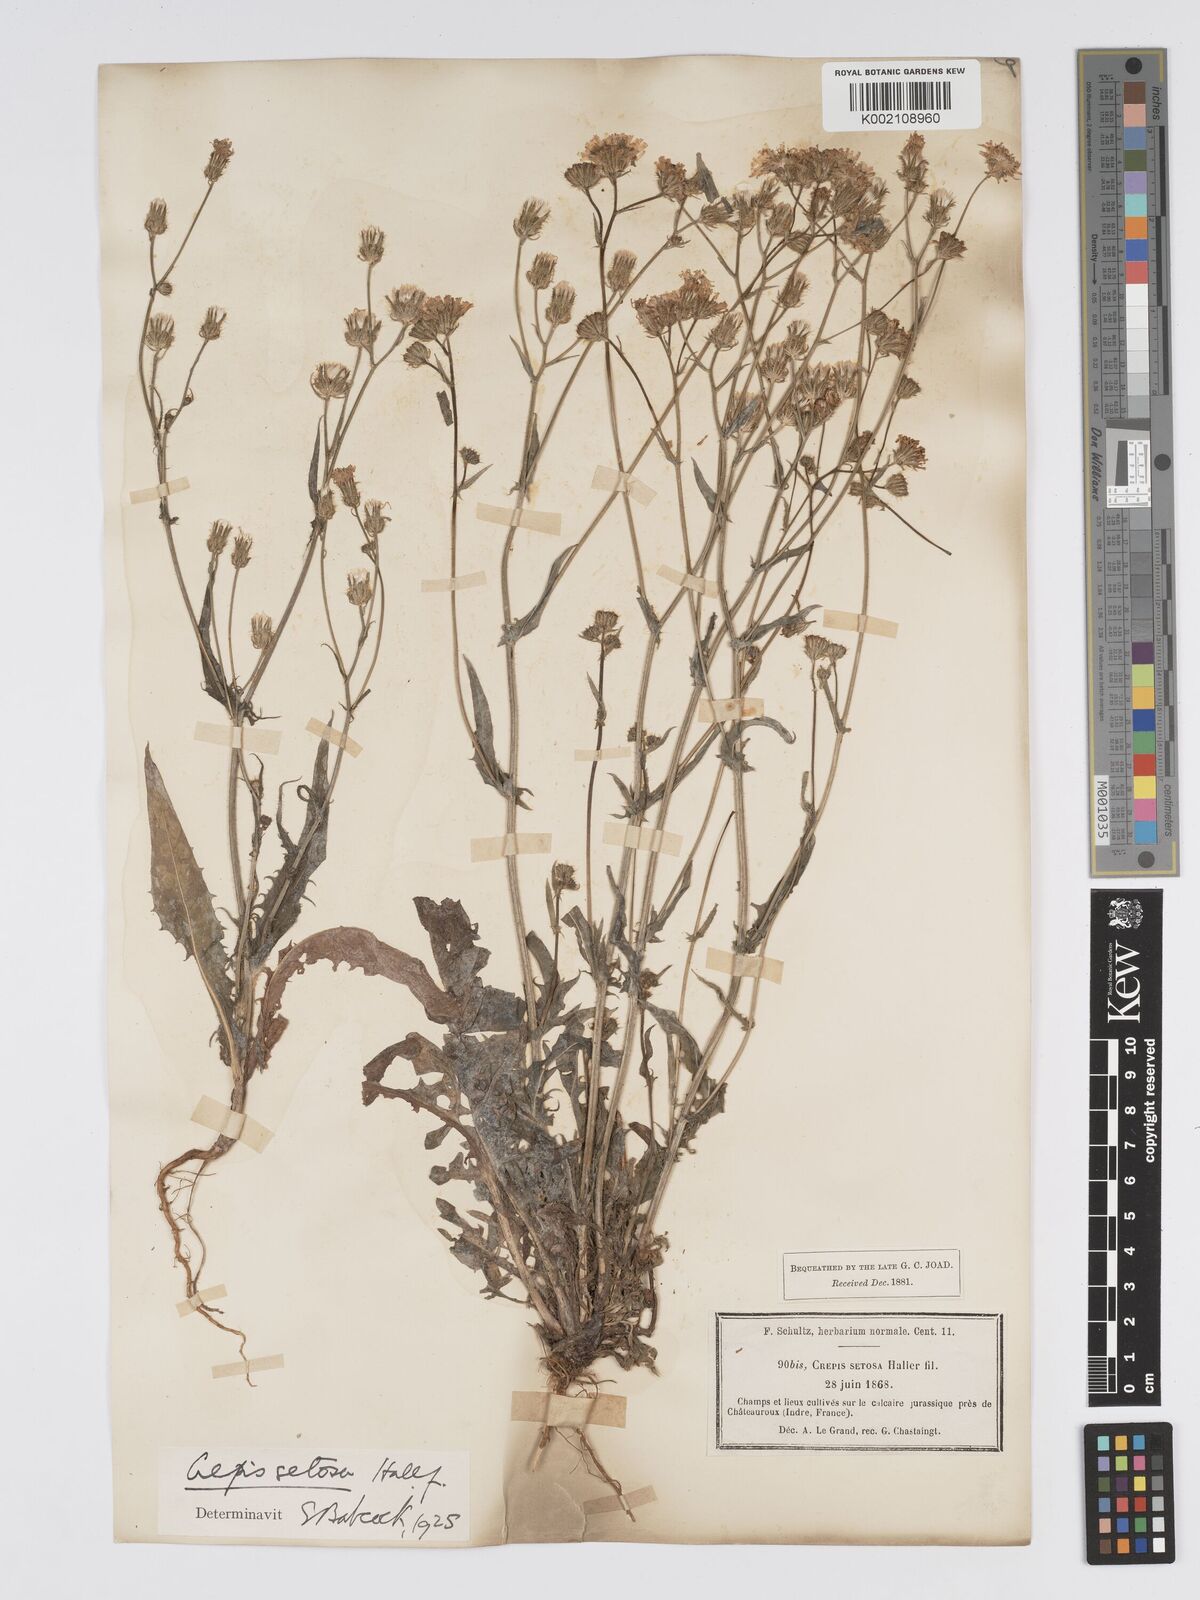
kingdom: Plantae
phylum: Tracheophyta
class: Magnoliopsida
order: Asterales
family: Asteraceae
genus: Crepis
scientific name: Crepis setosa
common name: Bristly hawk's-beard
